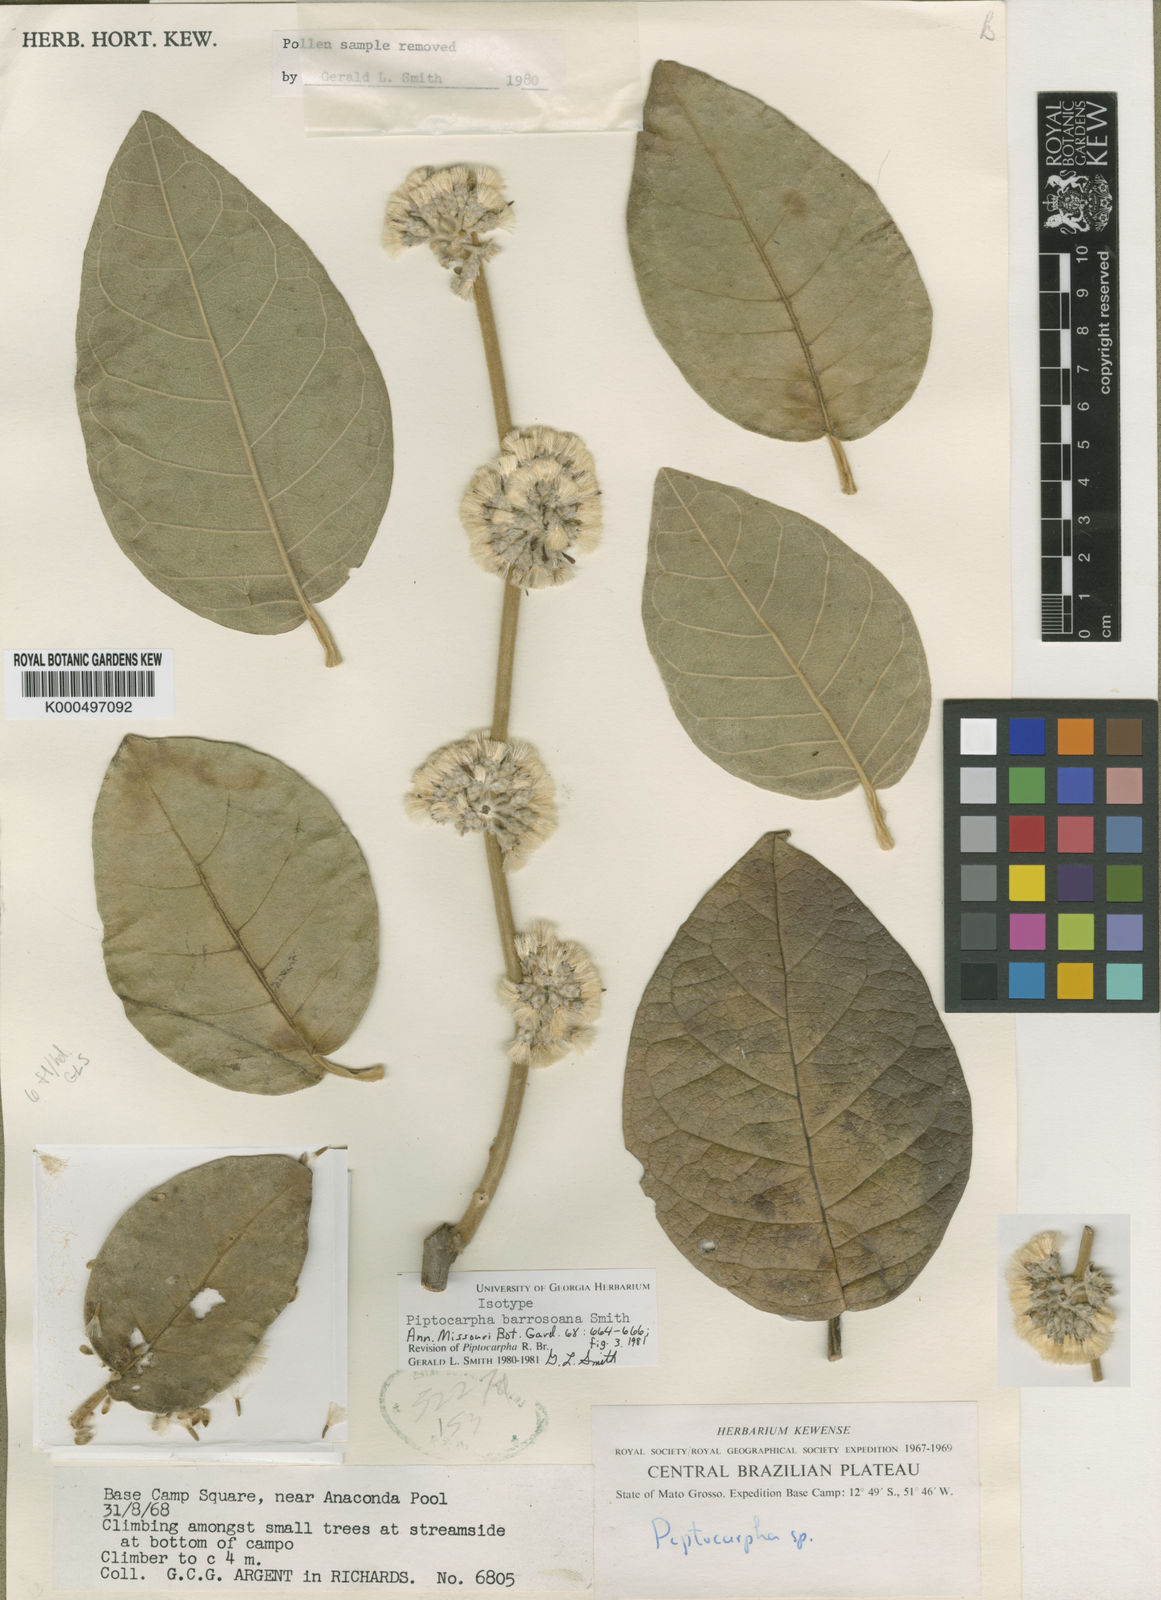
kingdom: Plantae
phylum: Tracheophyta
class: Magnoliopsida
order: Asterales
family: Asteraceae
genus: Piptocarpha
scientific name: Piptocarpha barrosoana
